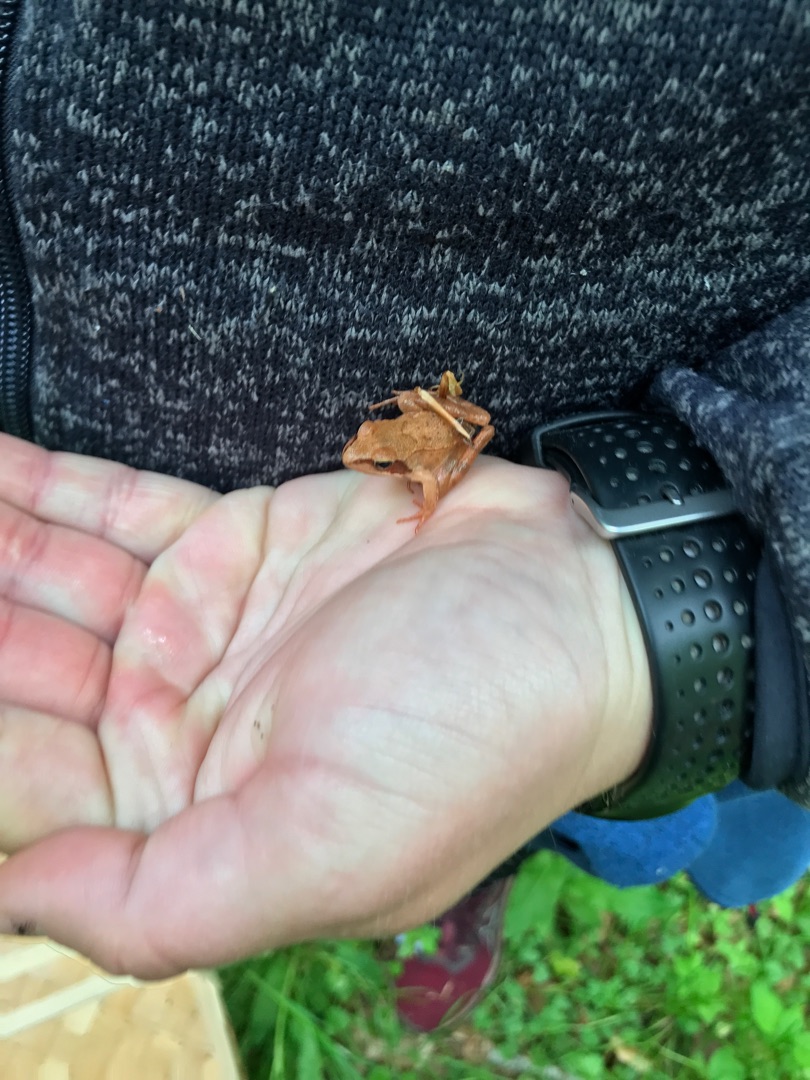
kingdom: Animalia
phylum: Chordata
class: Amphibia
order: Anura
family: Ranidae
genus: Rana
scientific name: Rana dalmatina
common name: Springfrø
